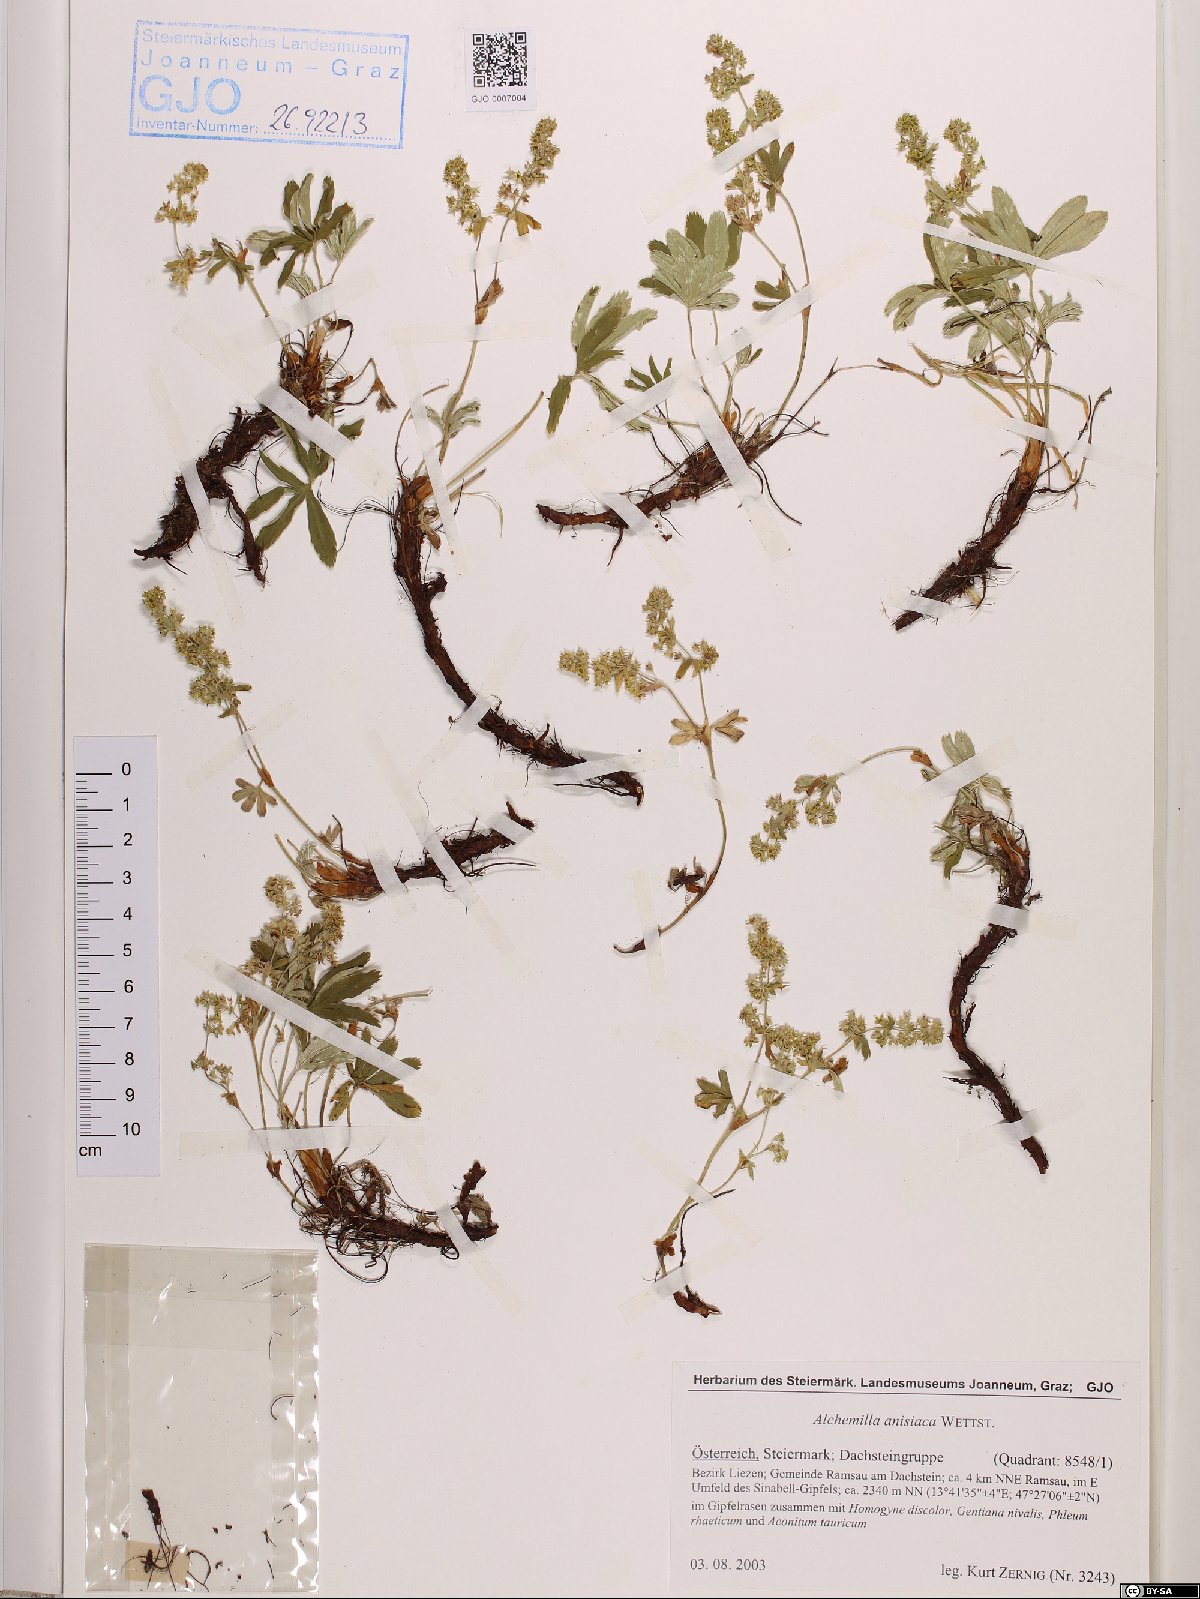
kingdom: Plantae
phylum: Tracheophyta
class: Magnoliopsida
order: Rosales
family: Rosaceae
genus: Alchemilla
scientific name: Alchemilla anisiaca
